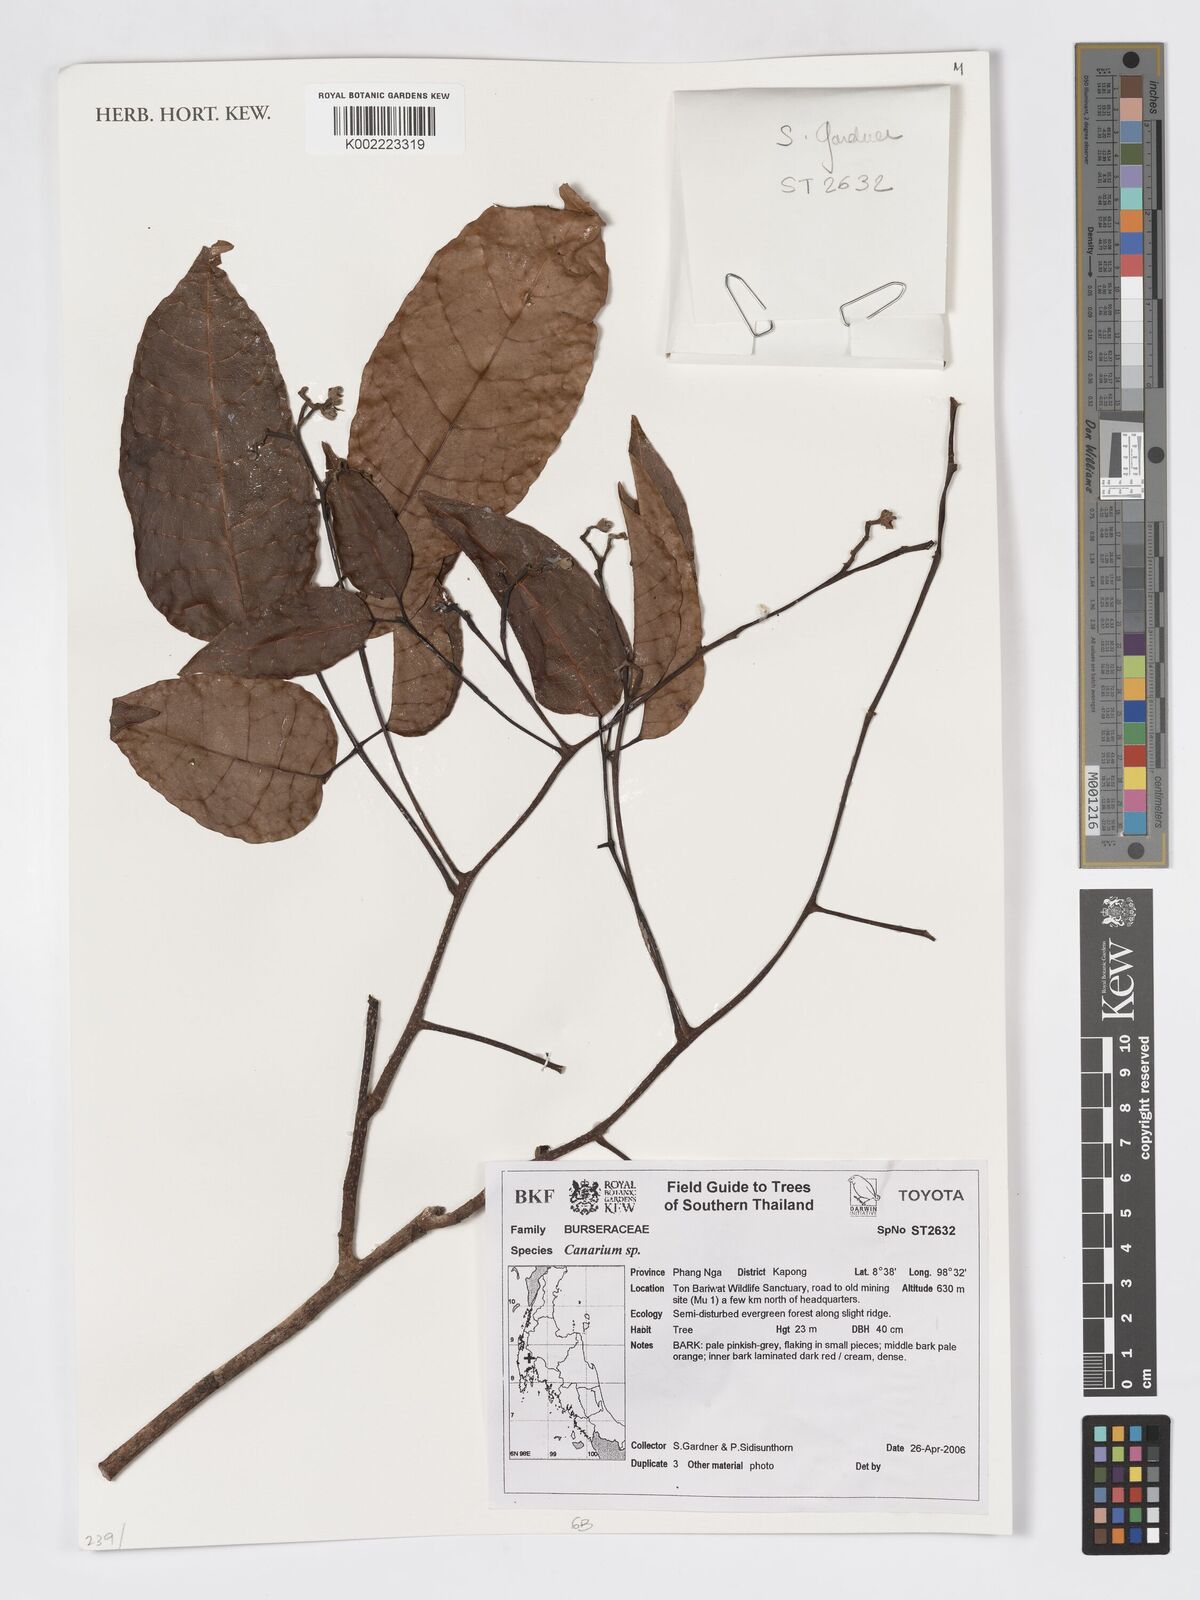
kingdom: Plantae
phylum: Tracheophyta
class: Magnoliopsida
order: Sapindales
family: Burseraceae
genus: Canarium
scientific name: Canarium
